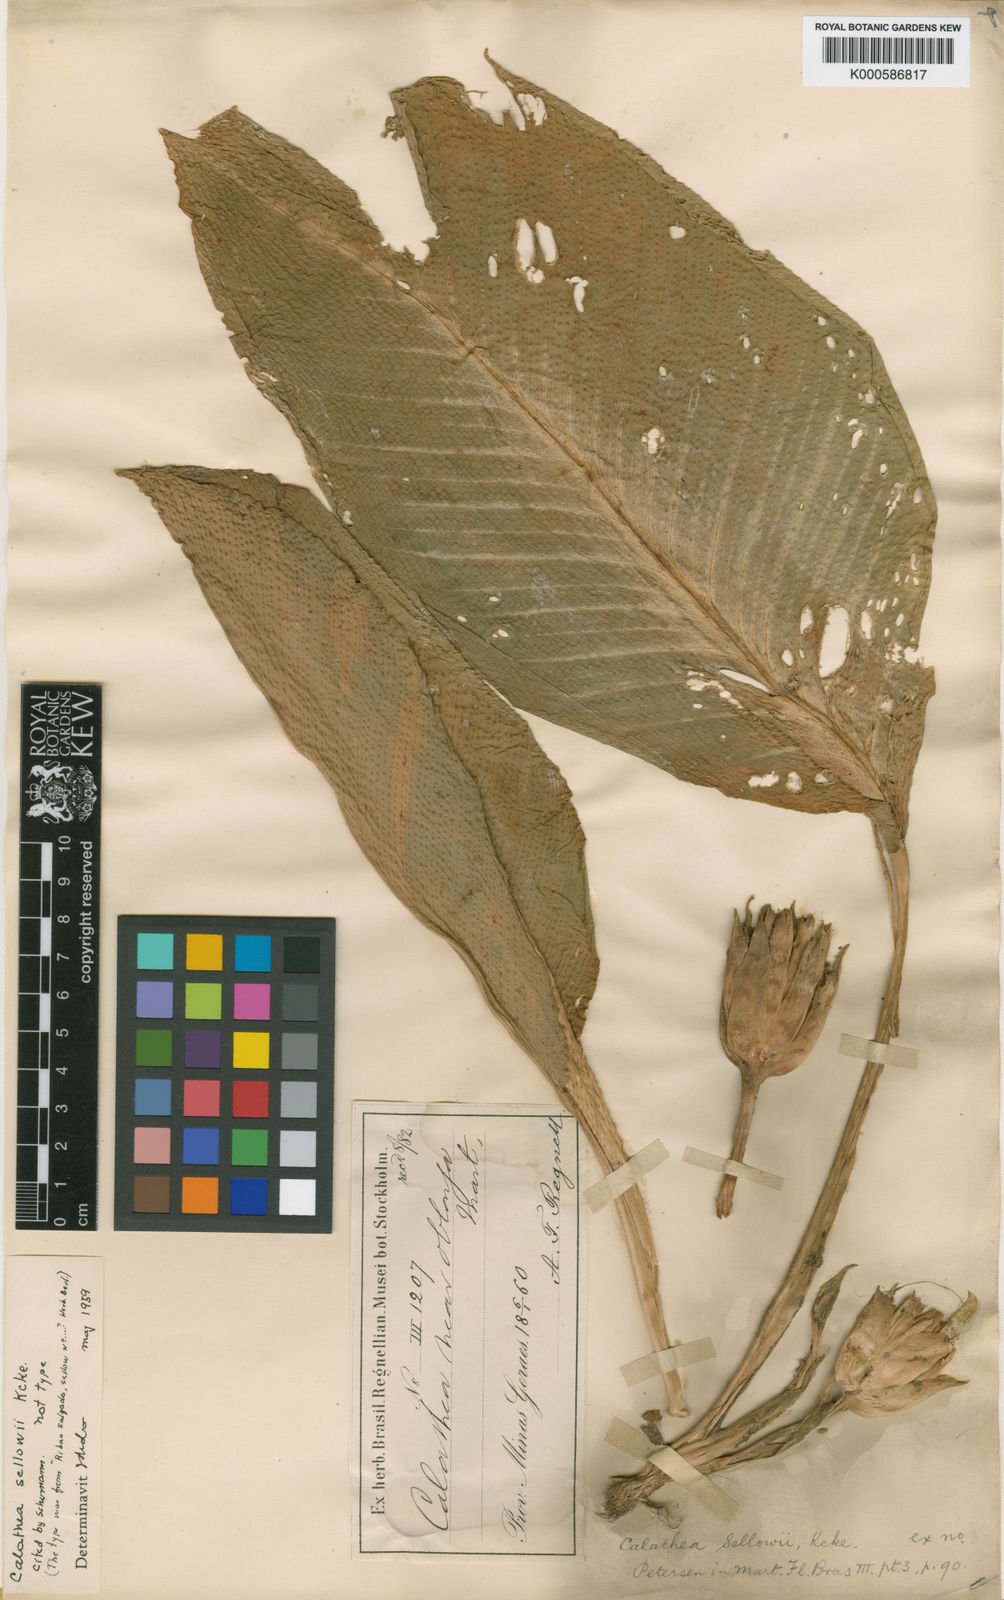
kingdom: Plantae
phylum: Tracheophyta
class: Liliopsida
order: Zingiberales
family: Marantaceae
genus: Calathea
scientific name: Calathea
